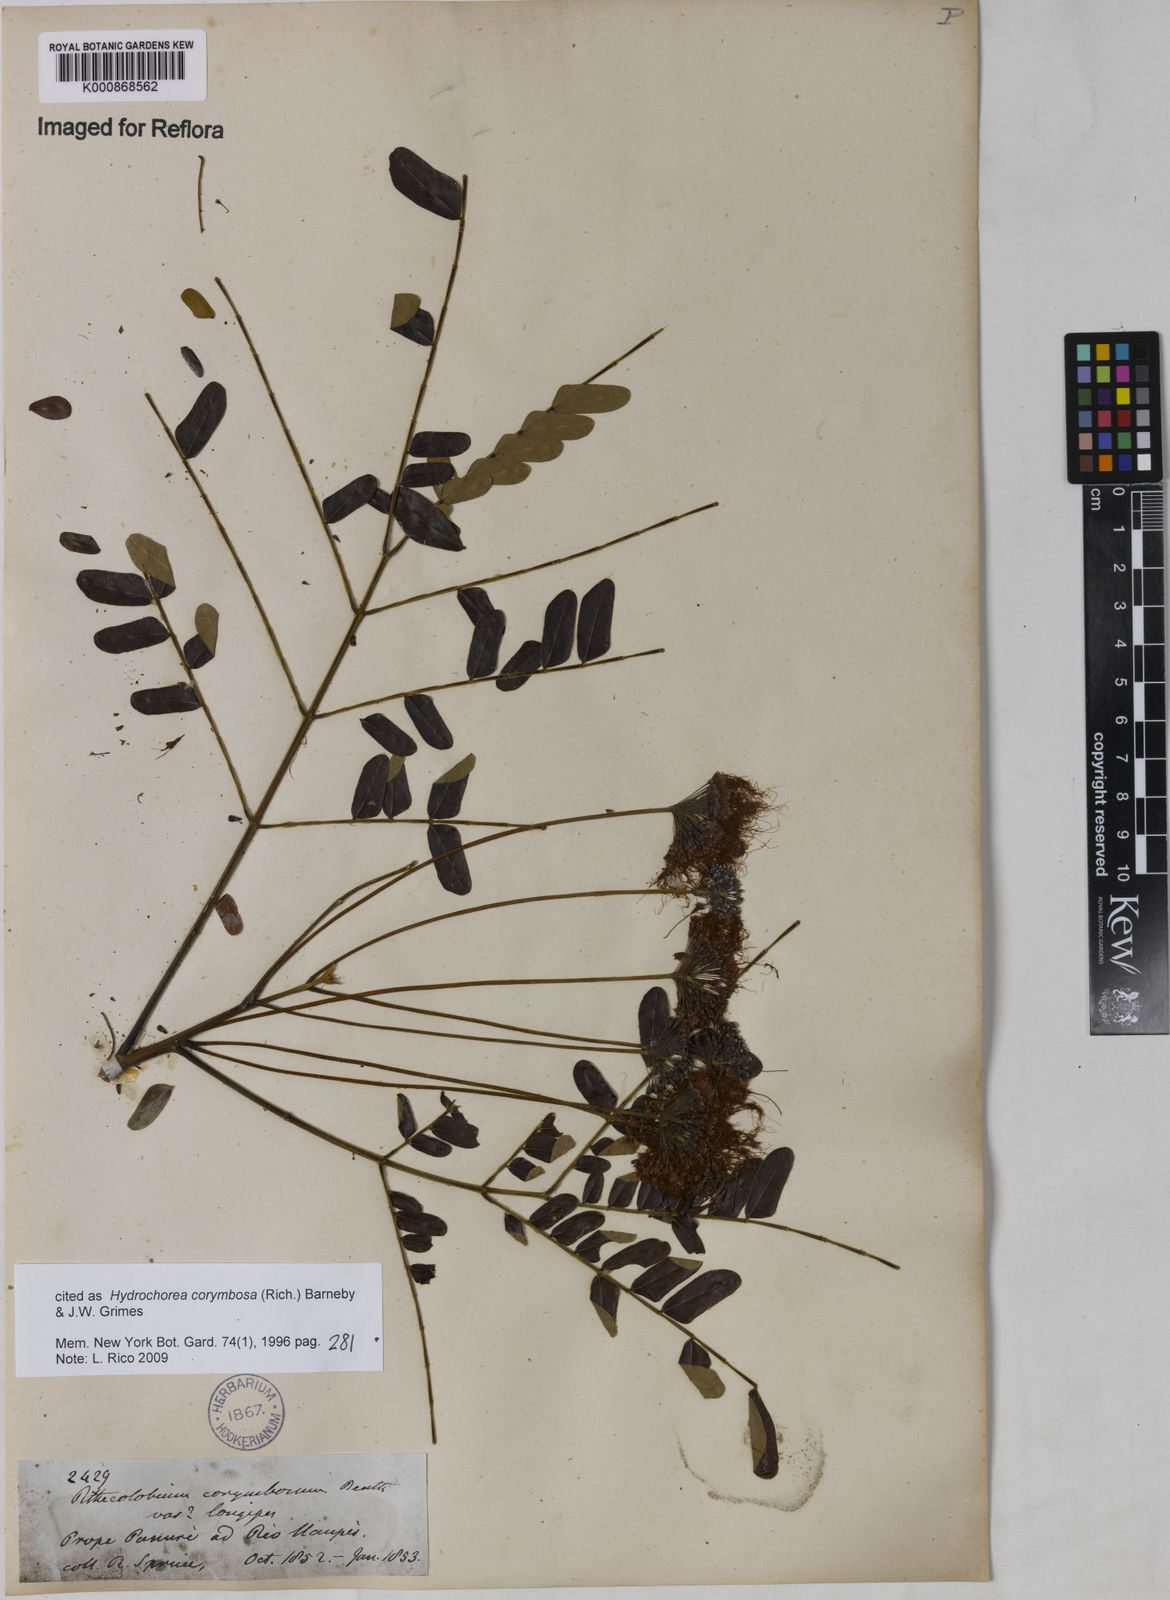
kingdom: Plantae
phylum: Tracheophyta
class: Magnoliopsida
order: Fabales
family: Fabaceae
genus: Hydrochorea
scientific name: Hydrochorea corymbosa
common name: Swamp manariballi
